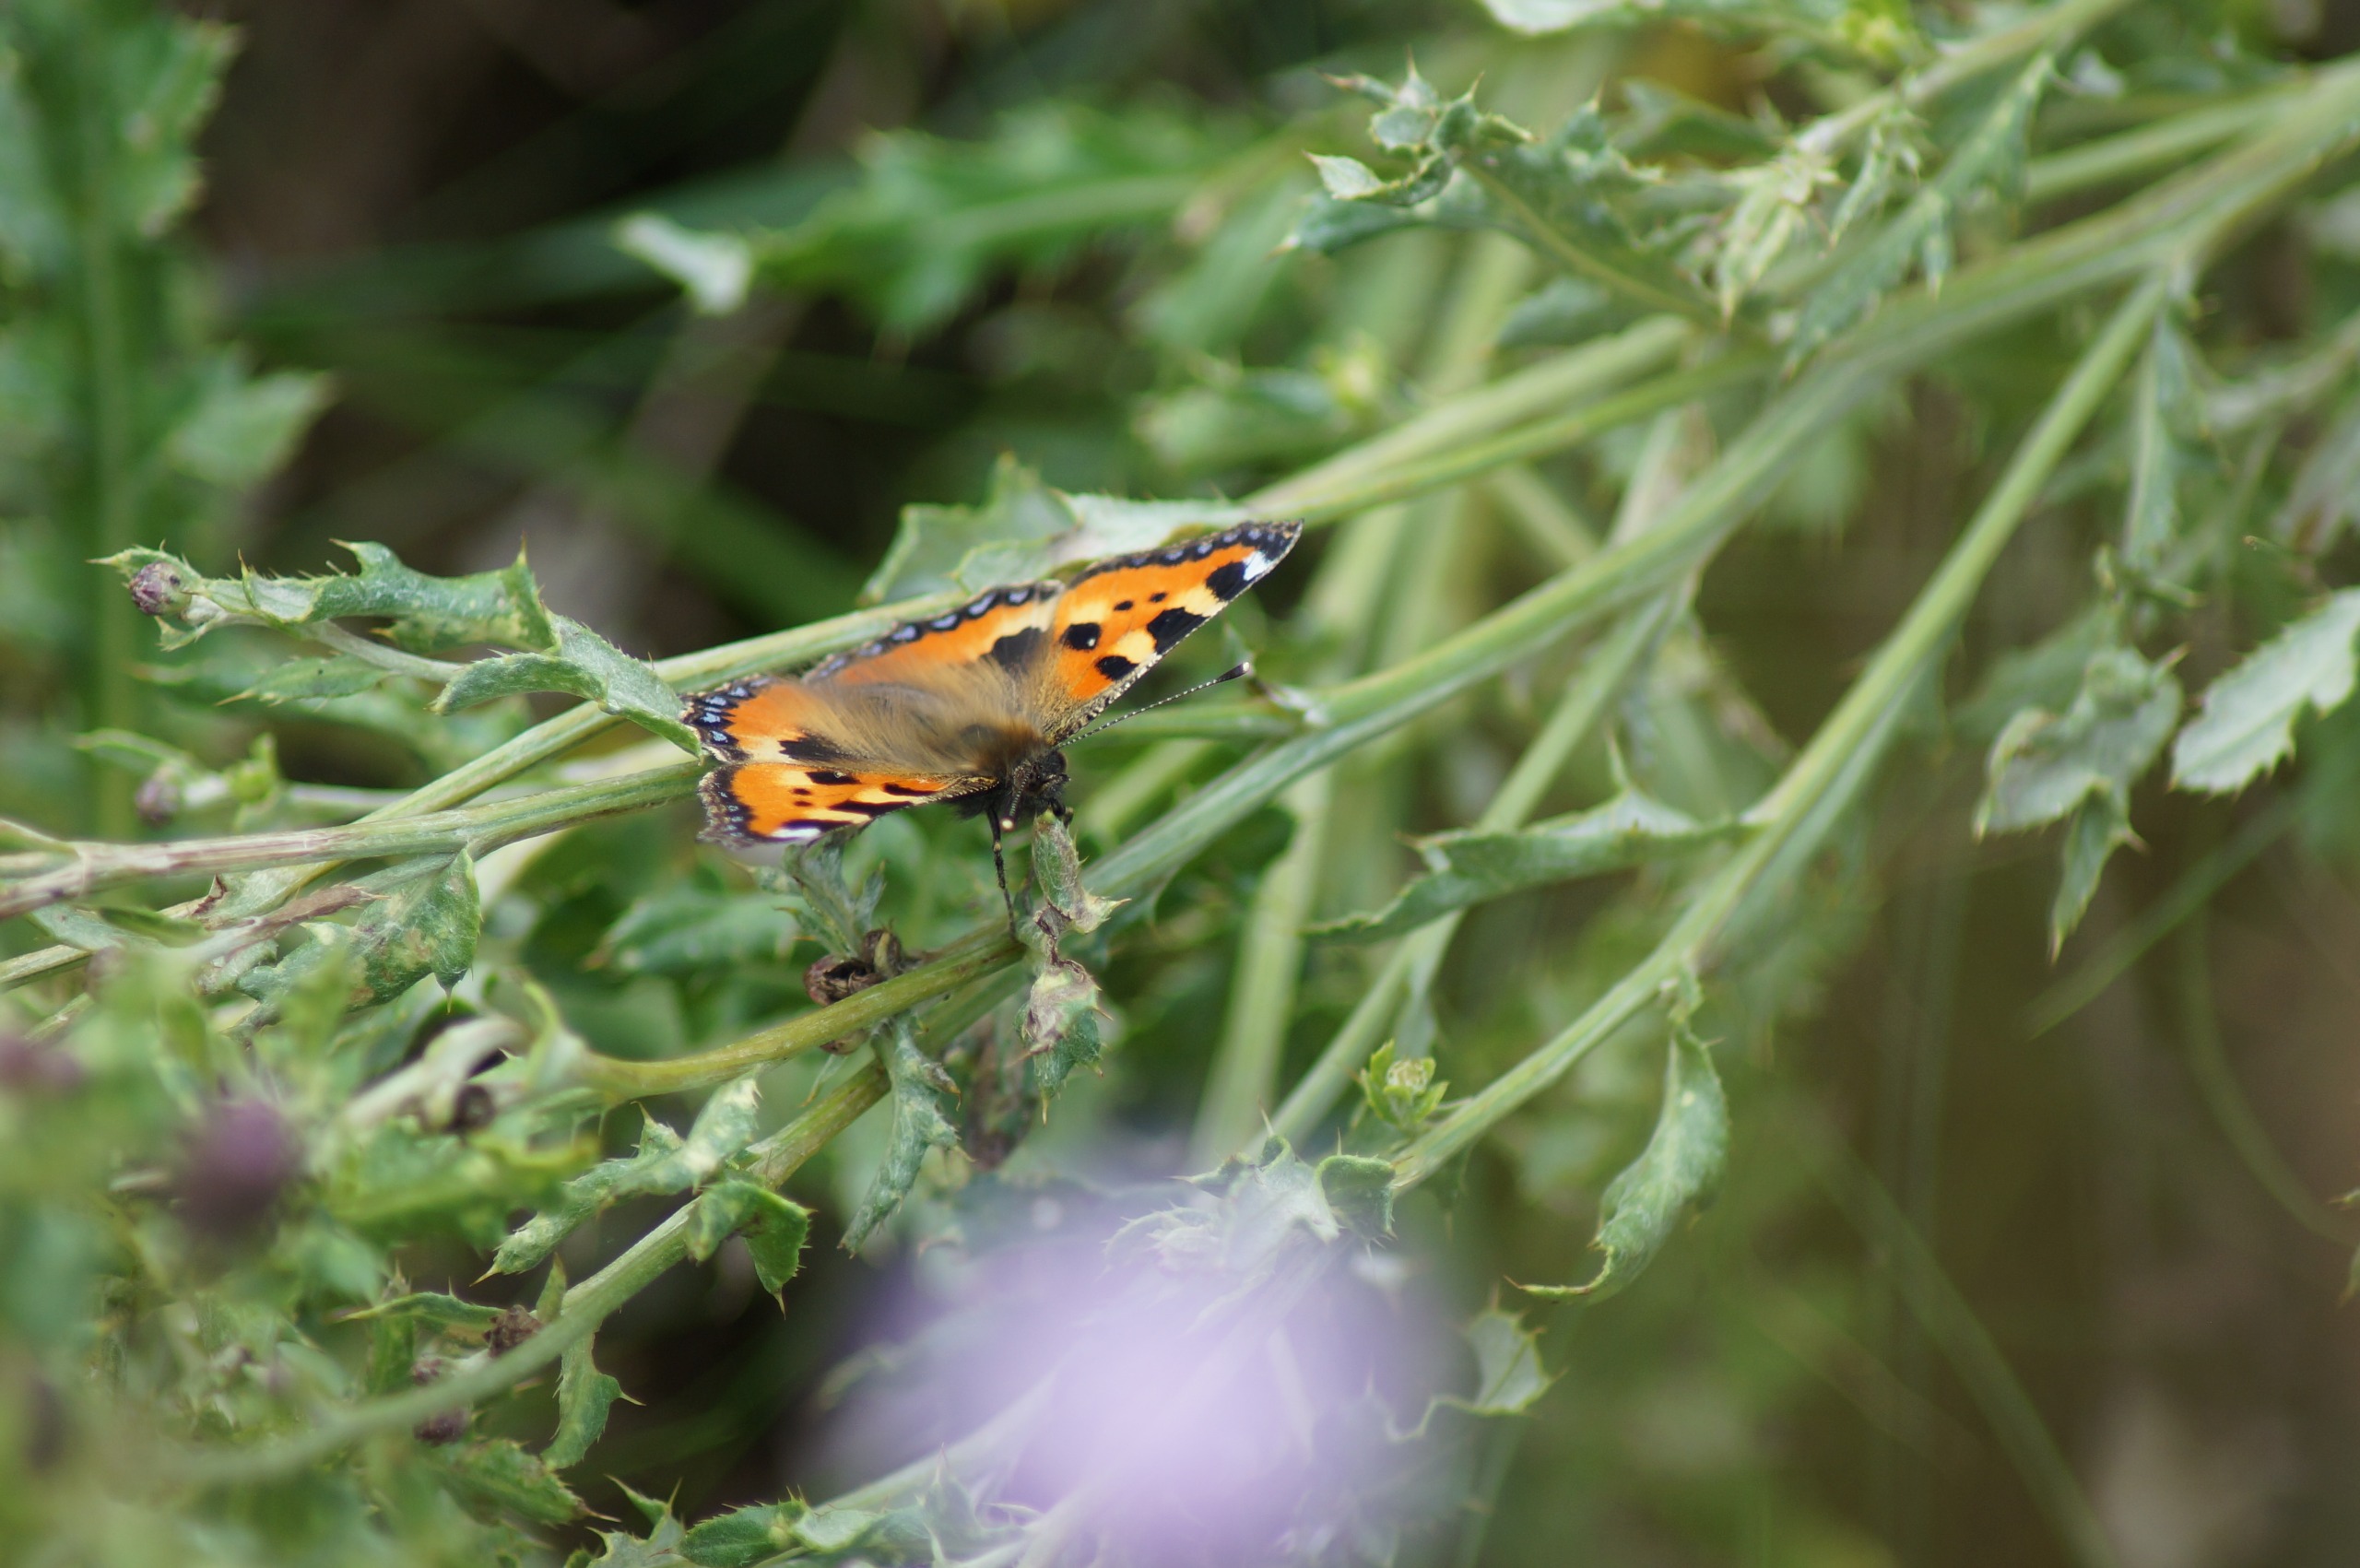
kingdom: Animalia
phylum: Arthropoda
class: Insecta
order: Lepidoptera
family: Nymphalidae
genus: Aglais
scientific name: Aglais urticae
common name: Nældens takvinge
